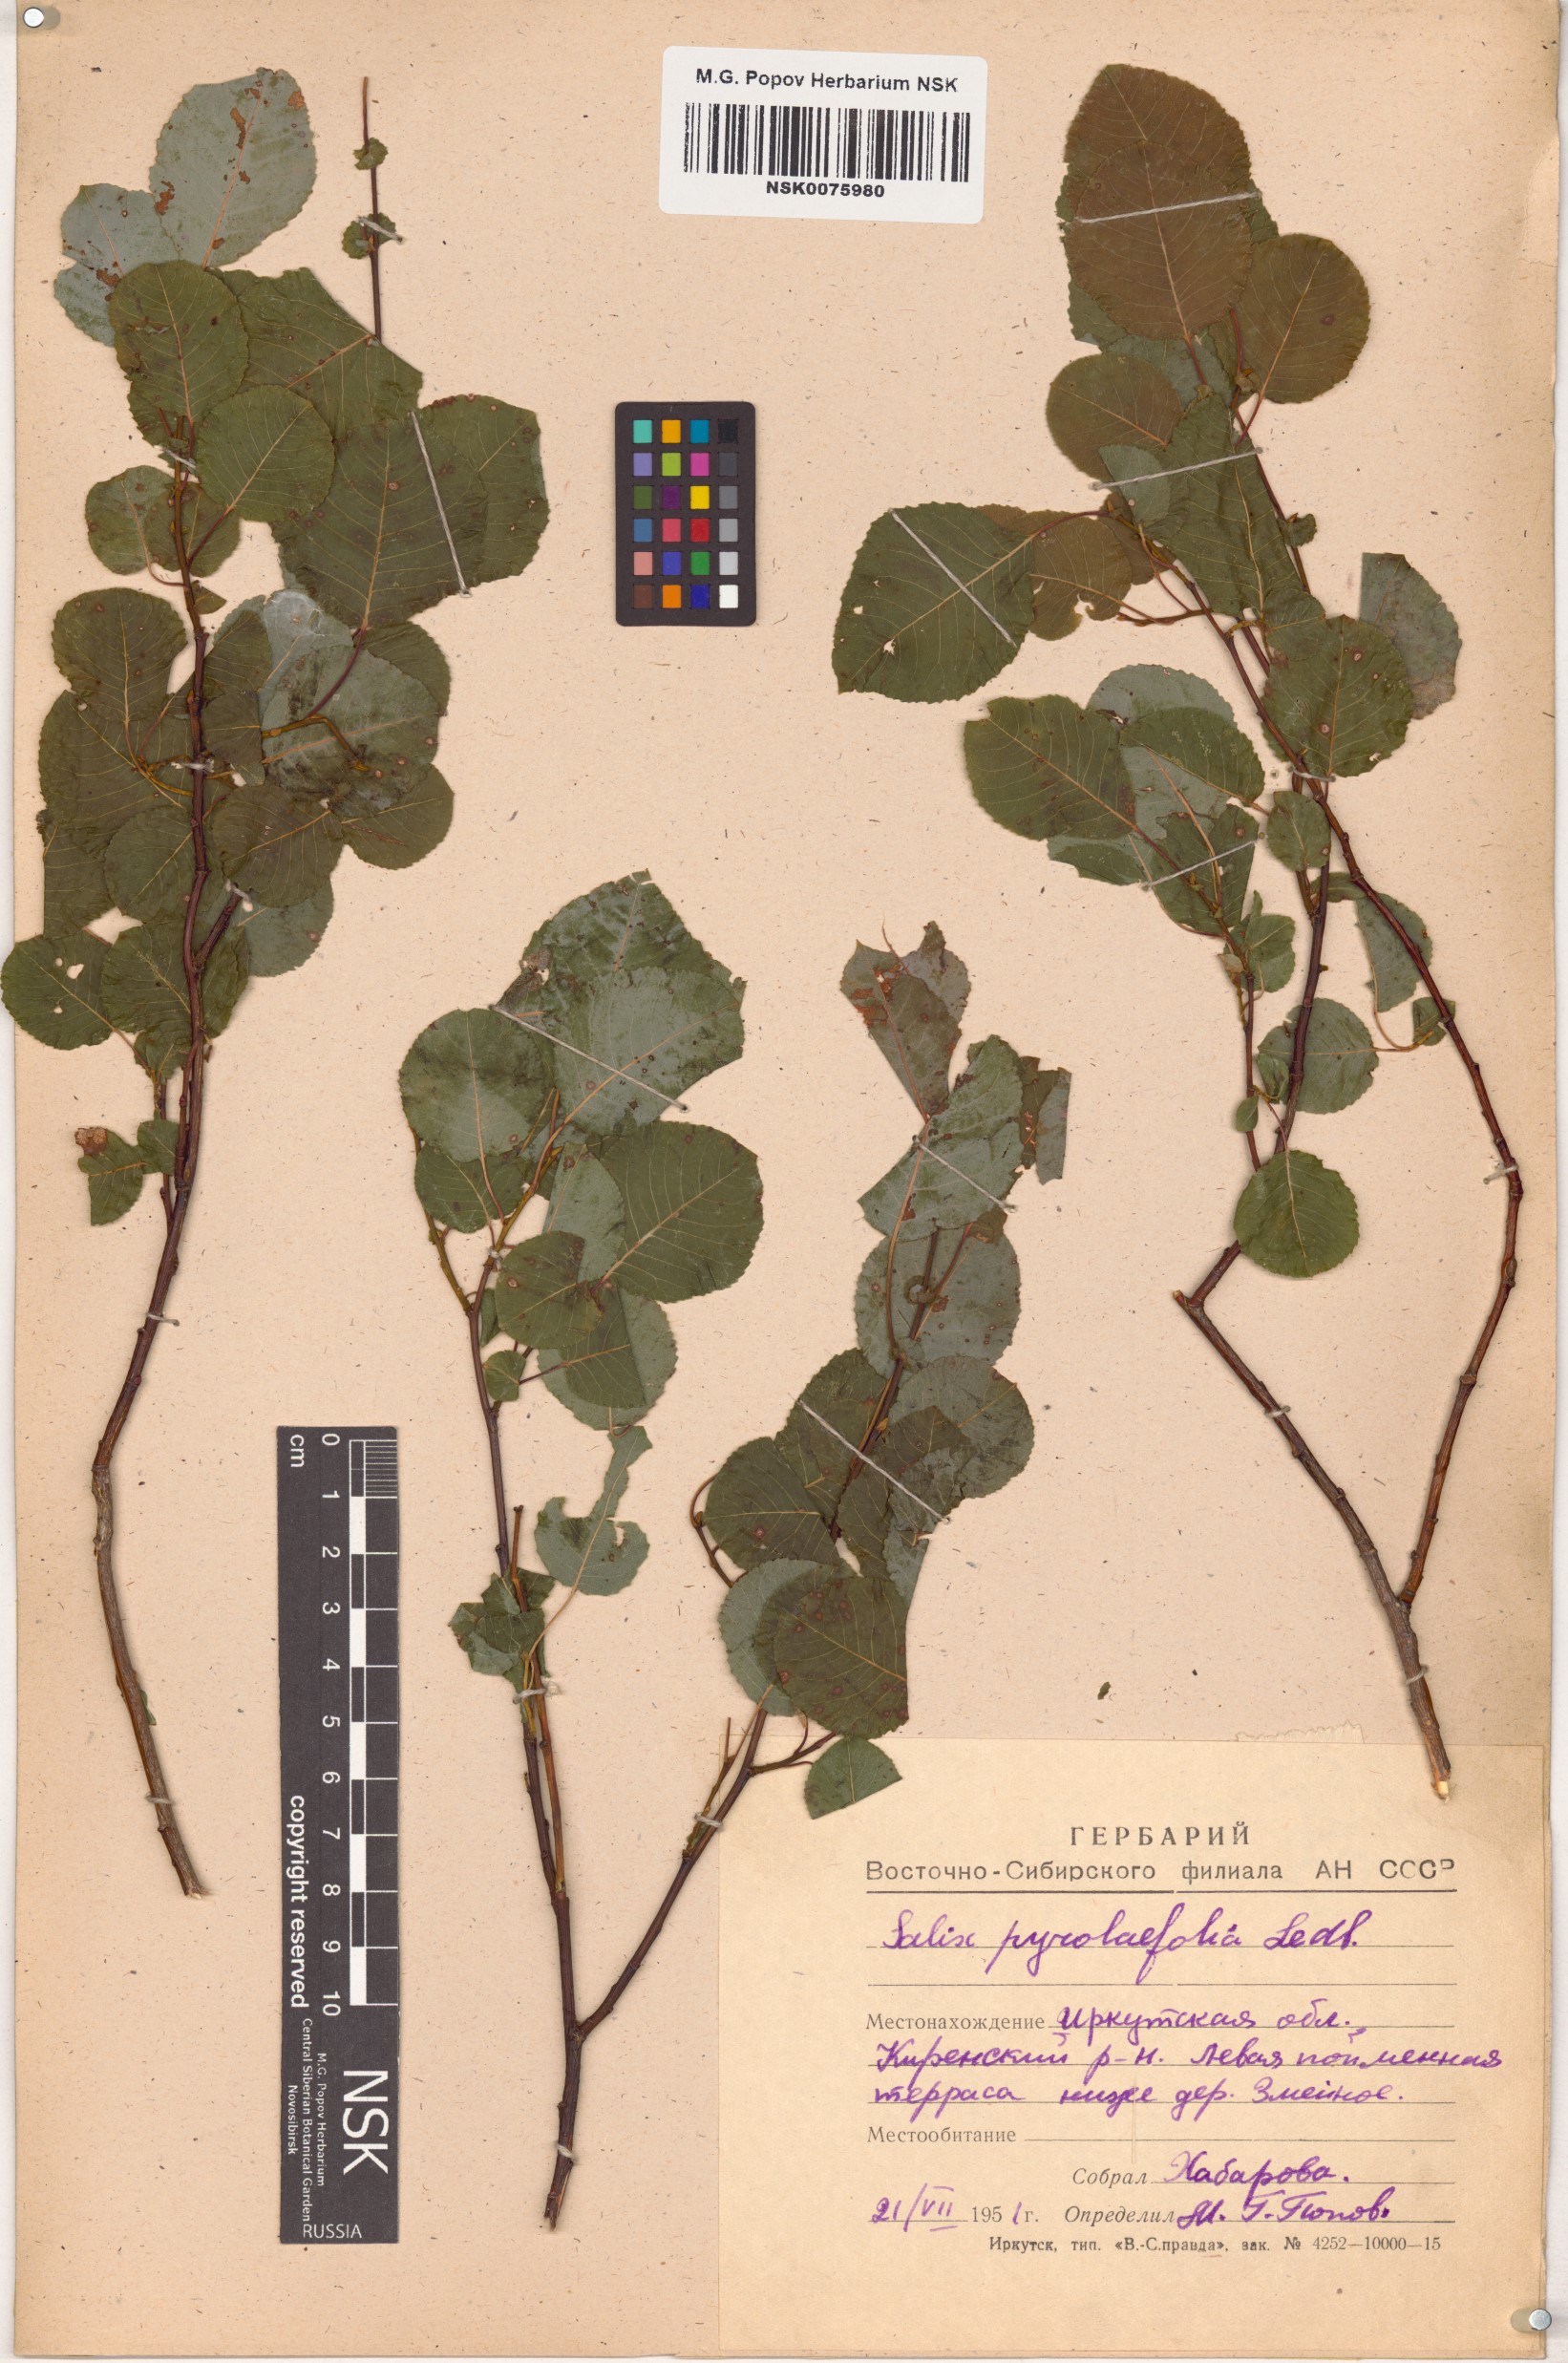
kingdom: Plantae
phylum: Tracheophyta
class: Magnoliopsida
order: Malpighiales
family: Salicaceae
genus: Salix
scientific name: Salix pyrolifolia
